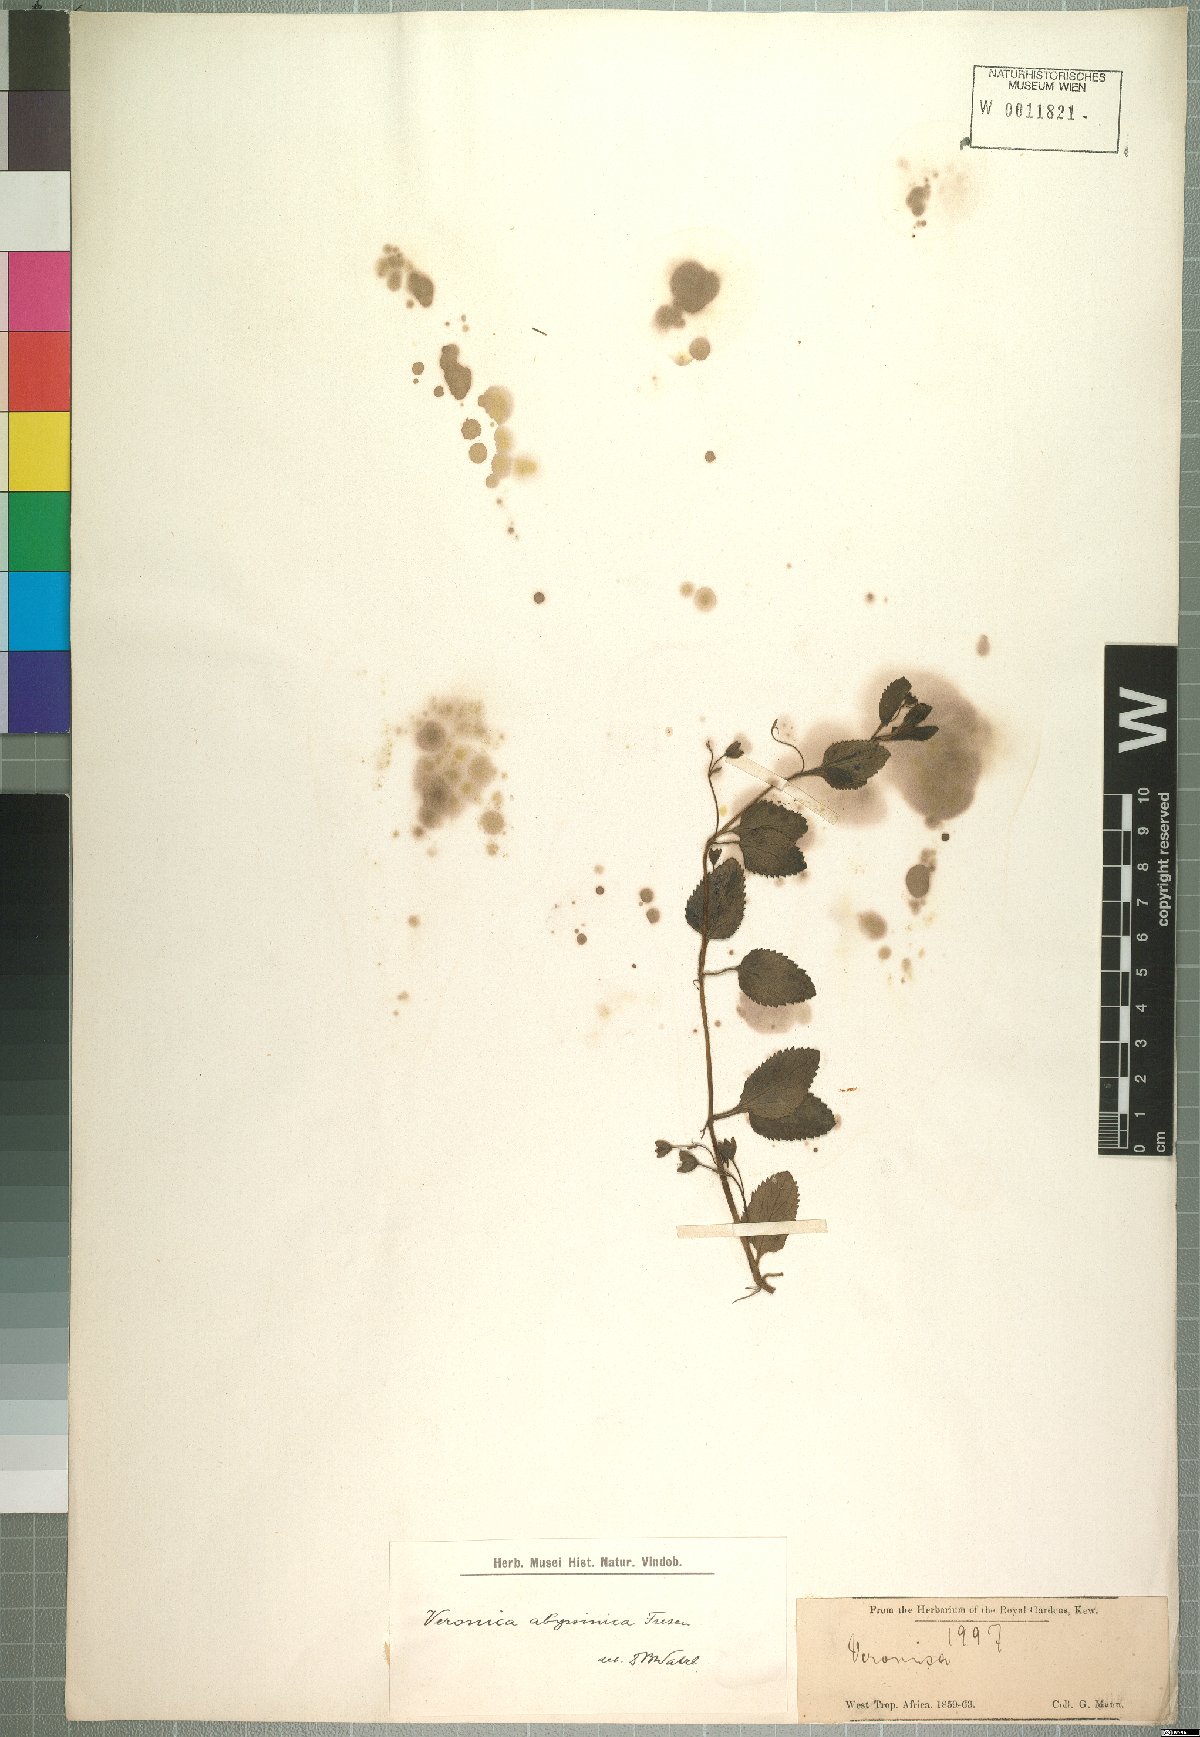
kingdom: Plantae
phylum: Tracheophyta
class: Magnoliopsida
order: Lamiales
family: Plantaginaceae
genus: Veronica
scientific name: Veronica abyssinica
